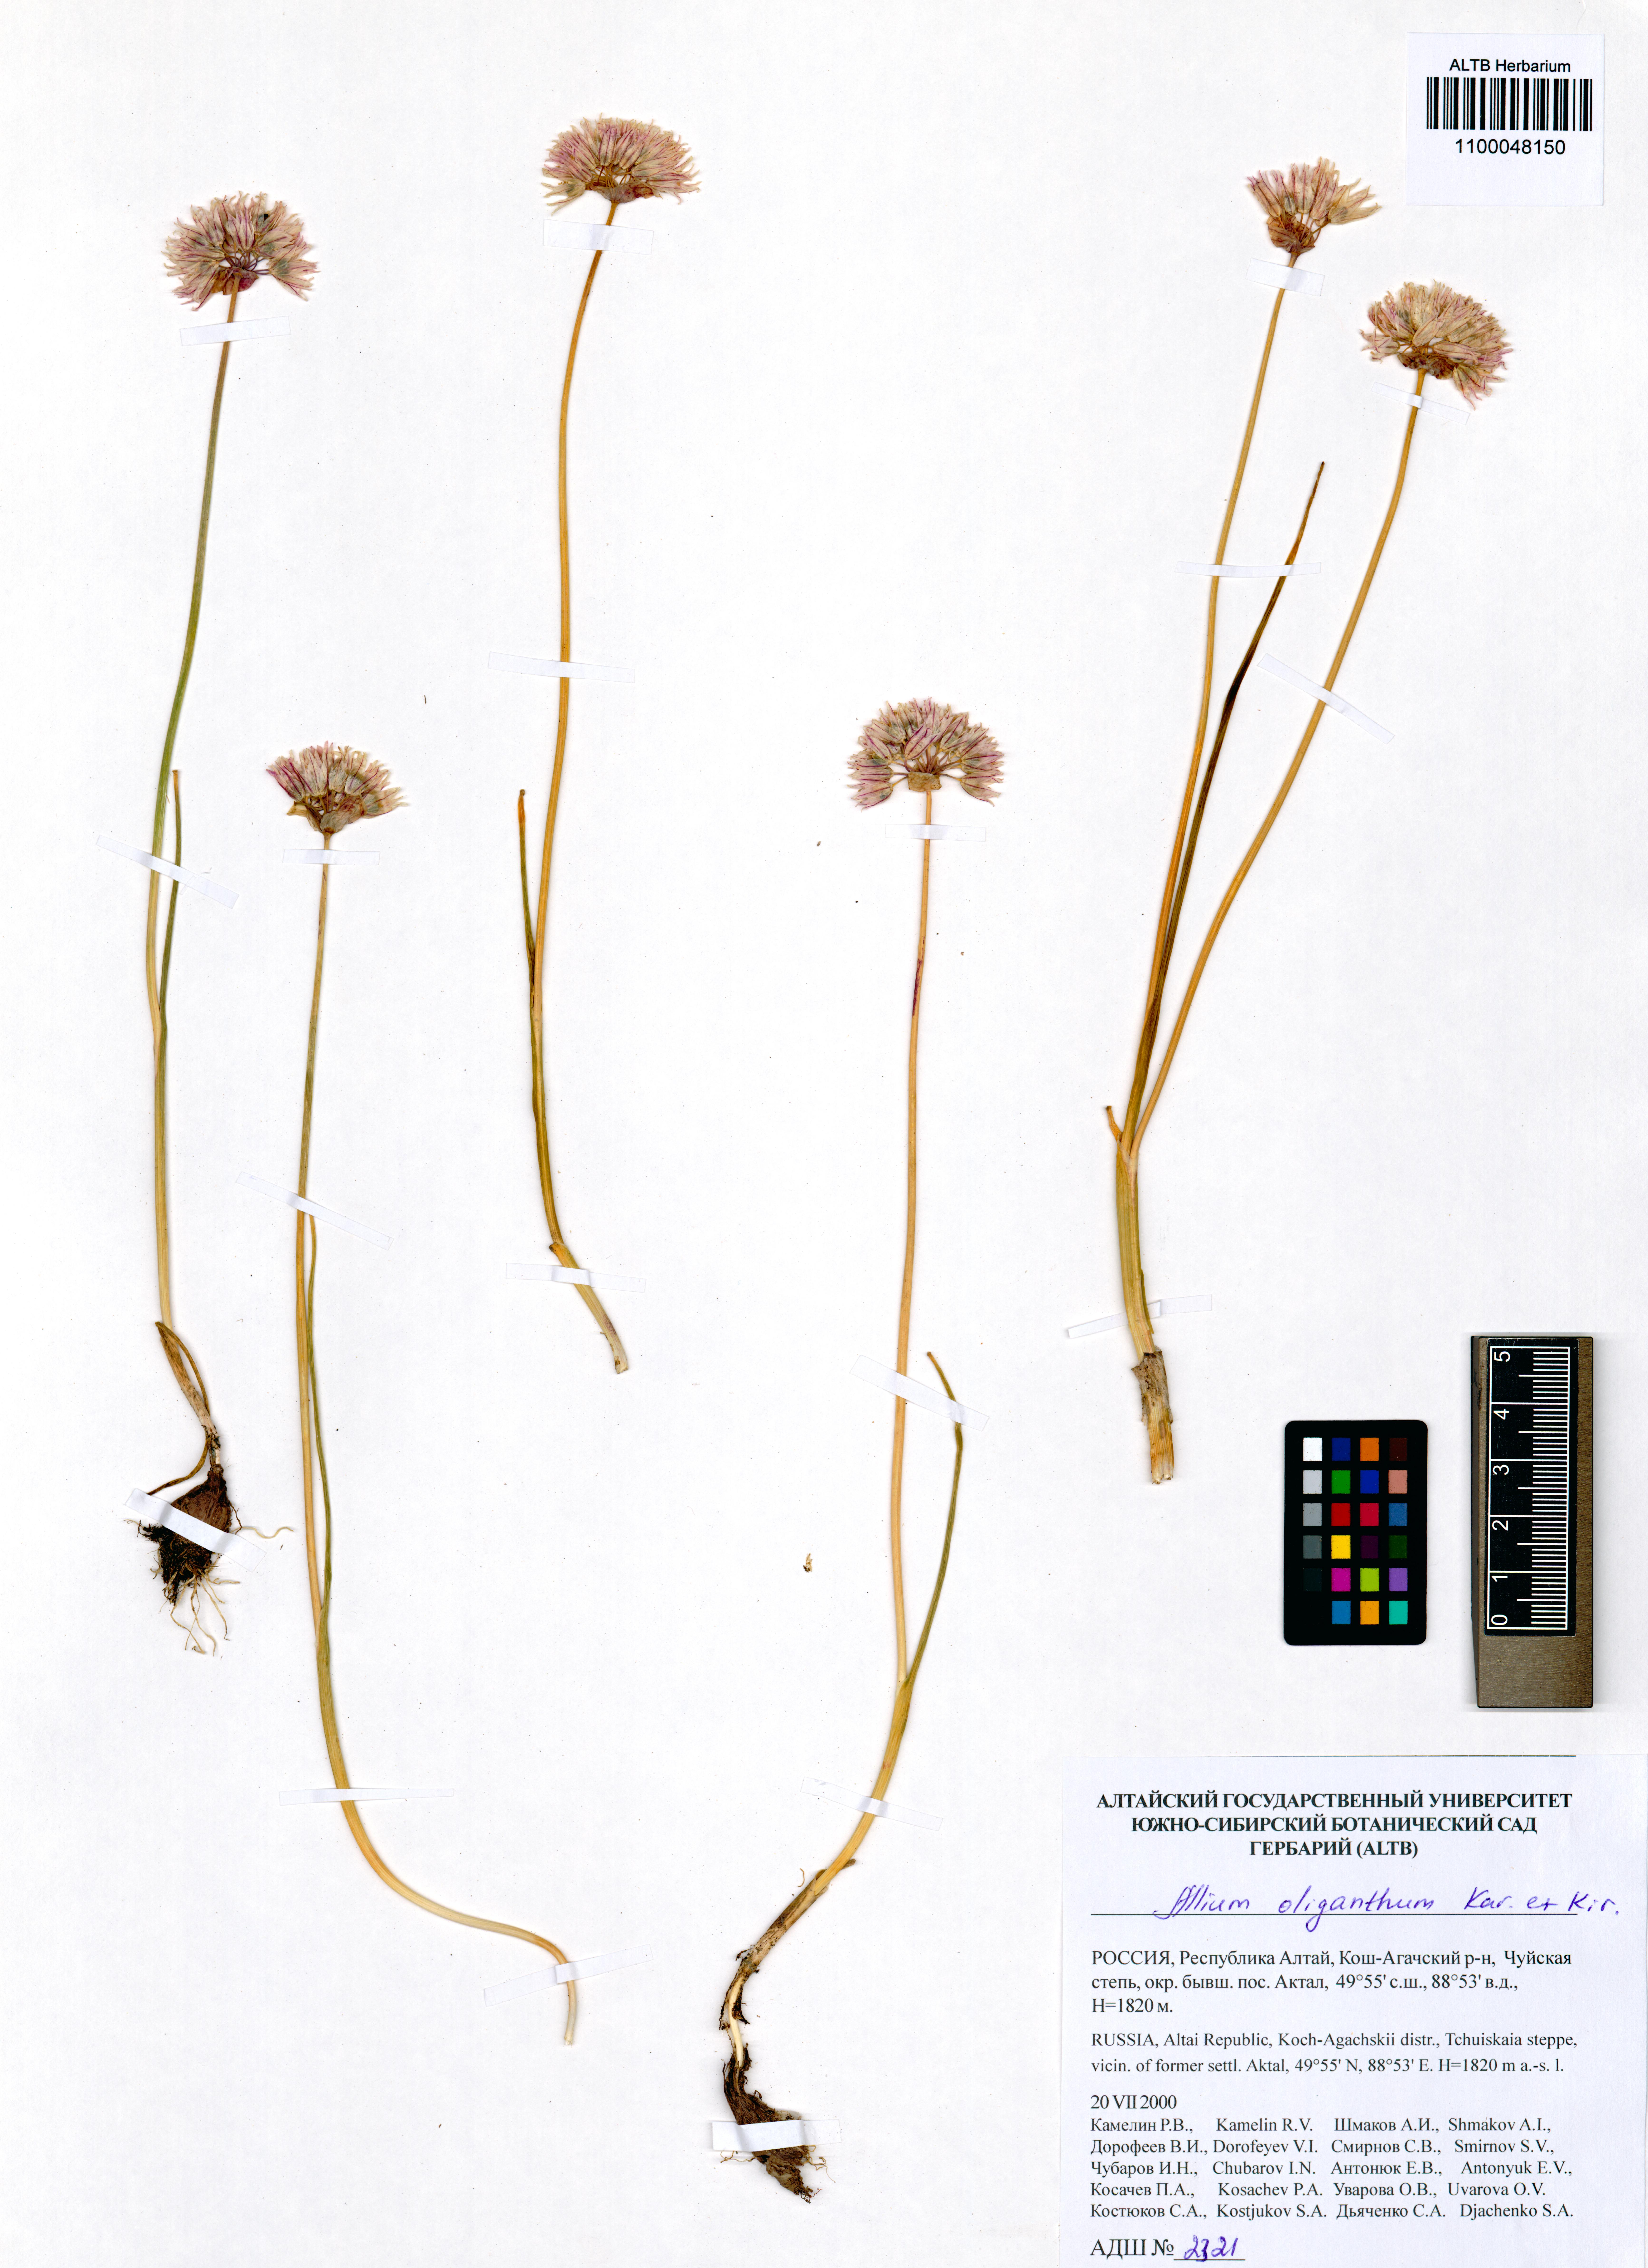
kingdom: Plantae
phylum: Tracheophyta
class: Liliopsida
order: Asparagales
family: Amaryllidaceae
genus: Allium
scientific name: Allium oliganthum
